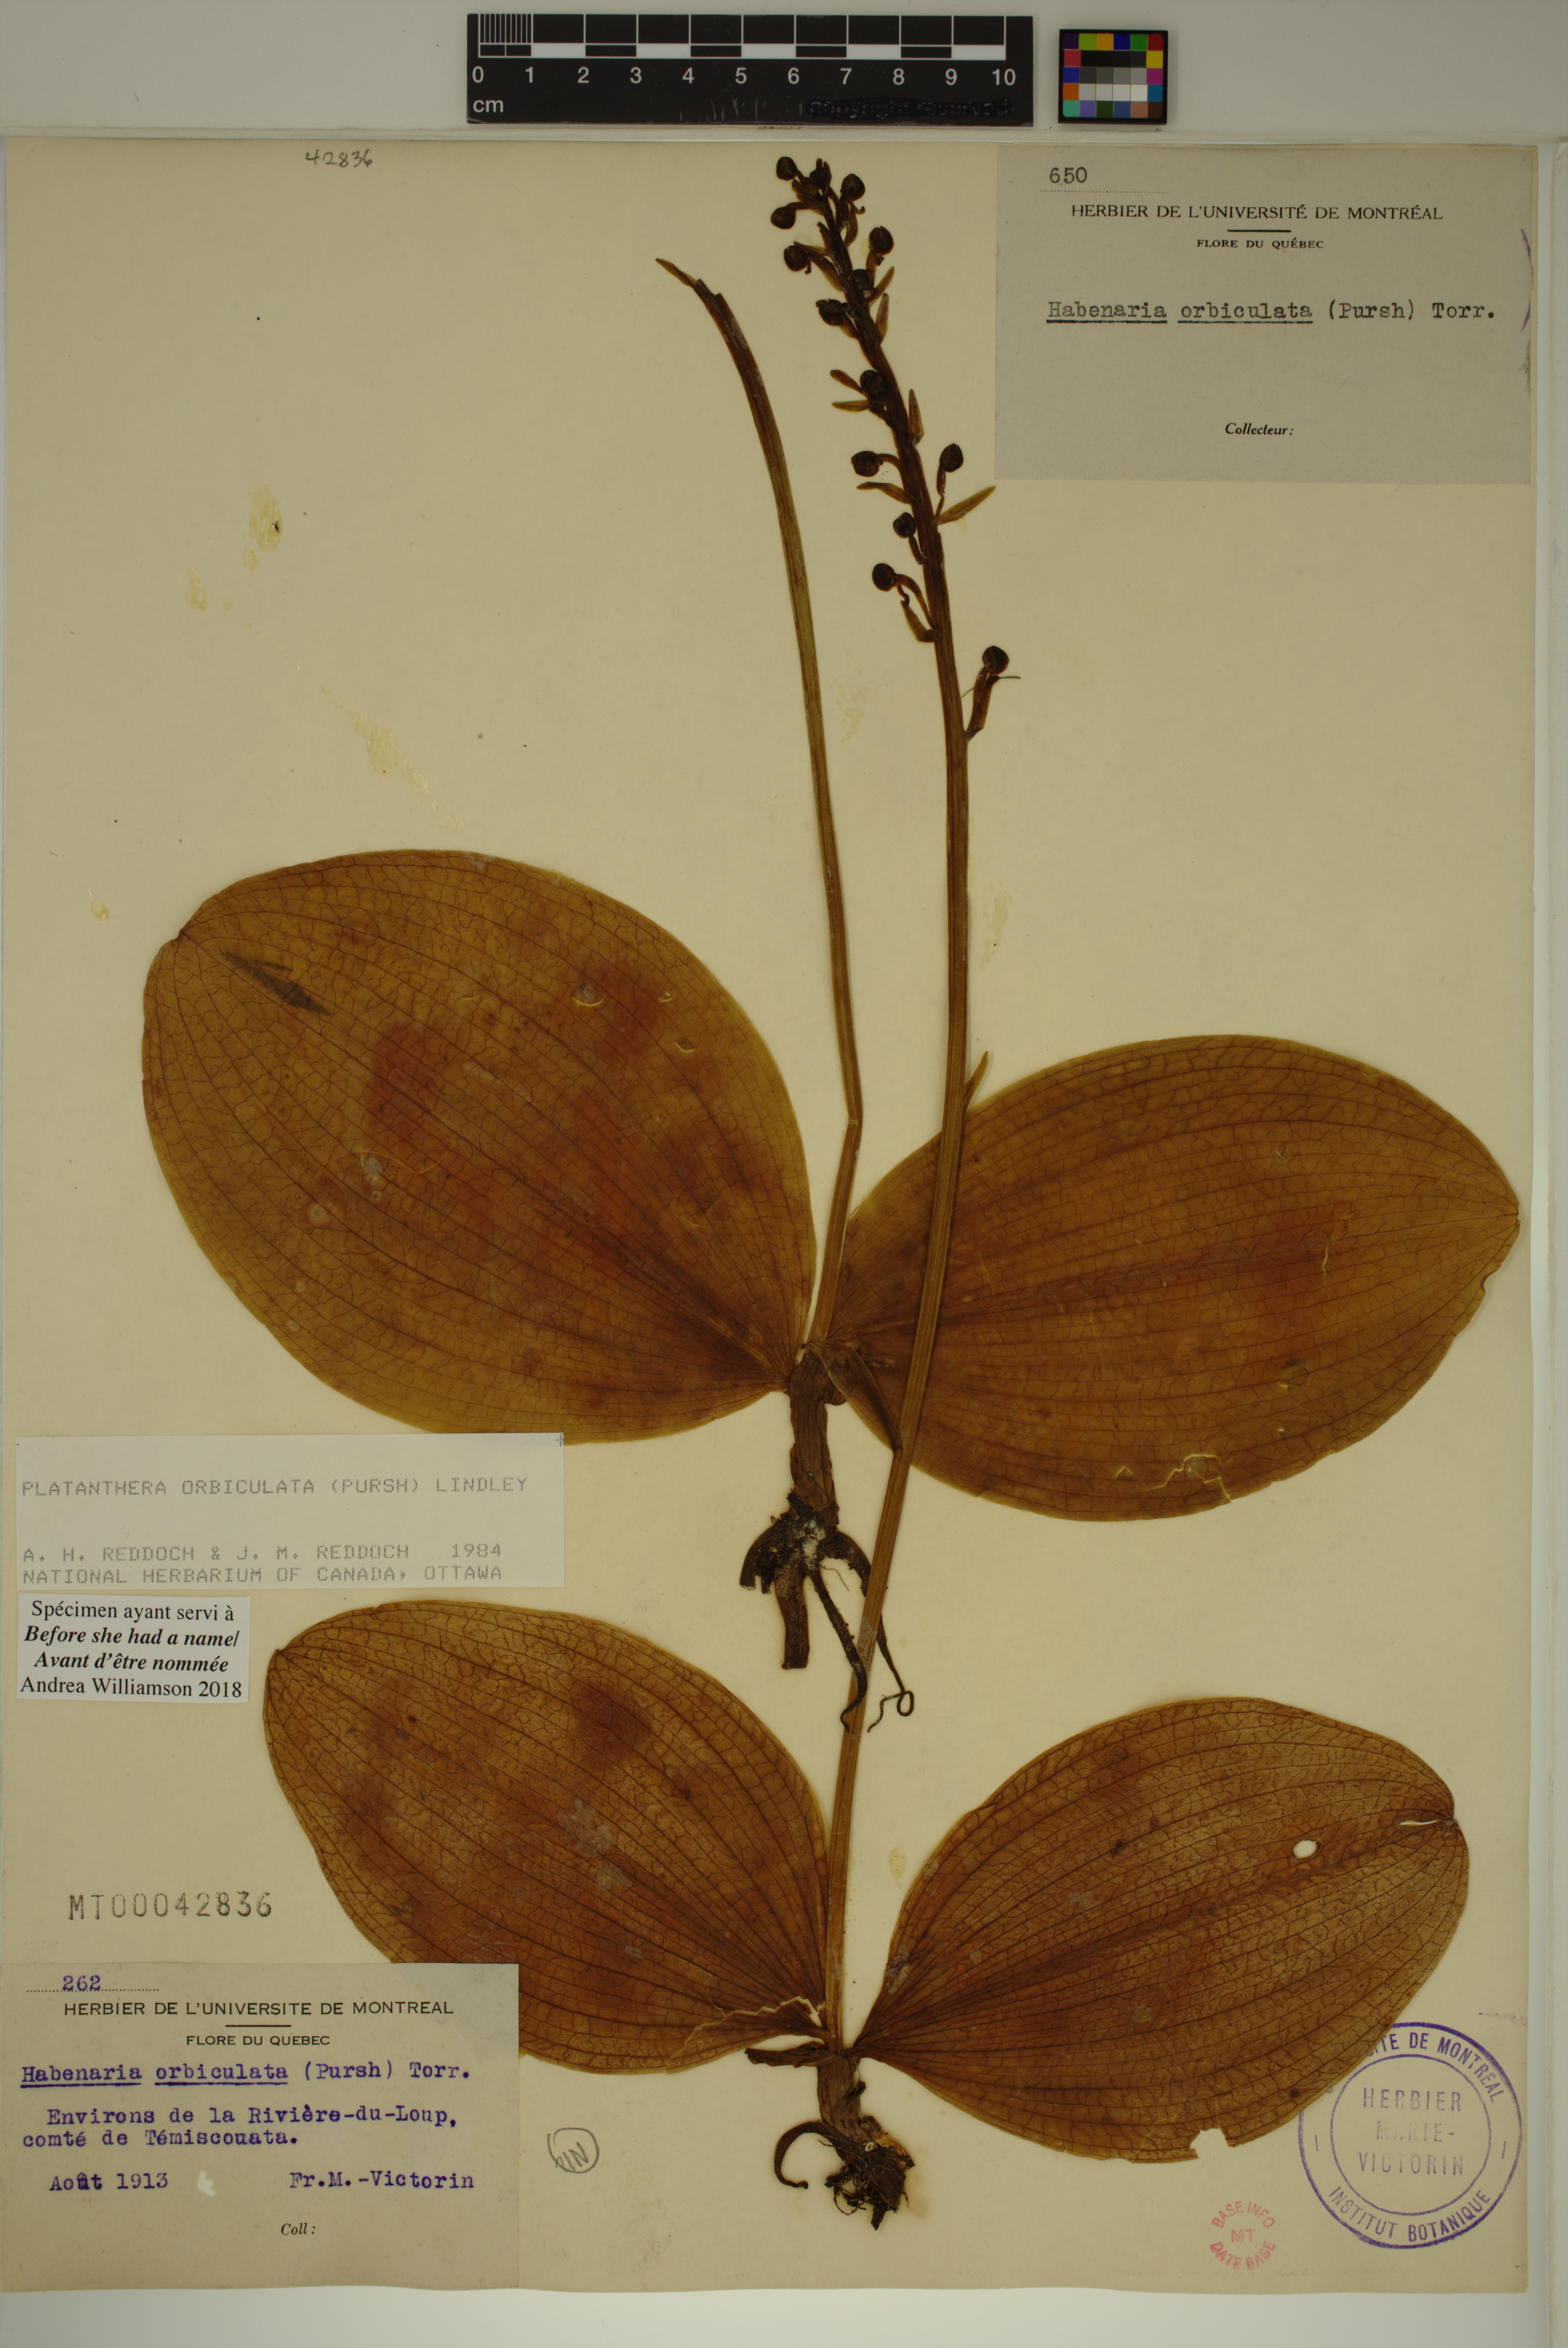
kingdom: Plantae
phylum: Tracheophyta
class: Liliopsida
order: Asparagales
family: Orchidaceae
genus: Platanthera
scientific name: Platanthera orbiculata
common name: Large round-leaved orchid
